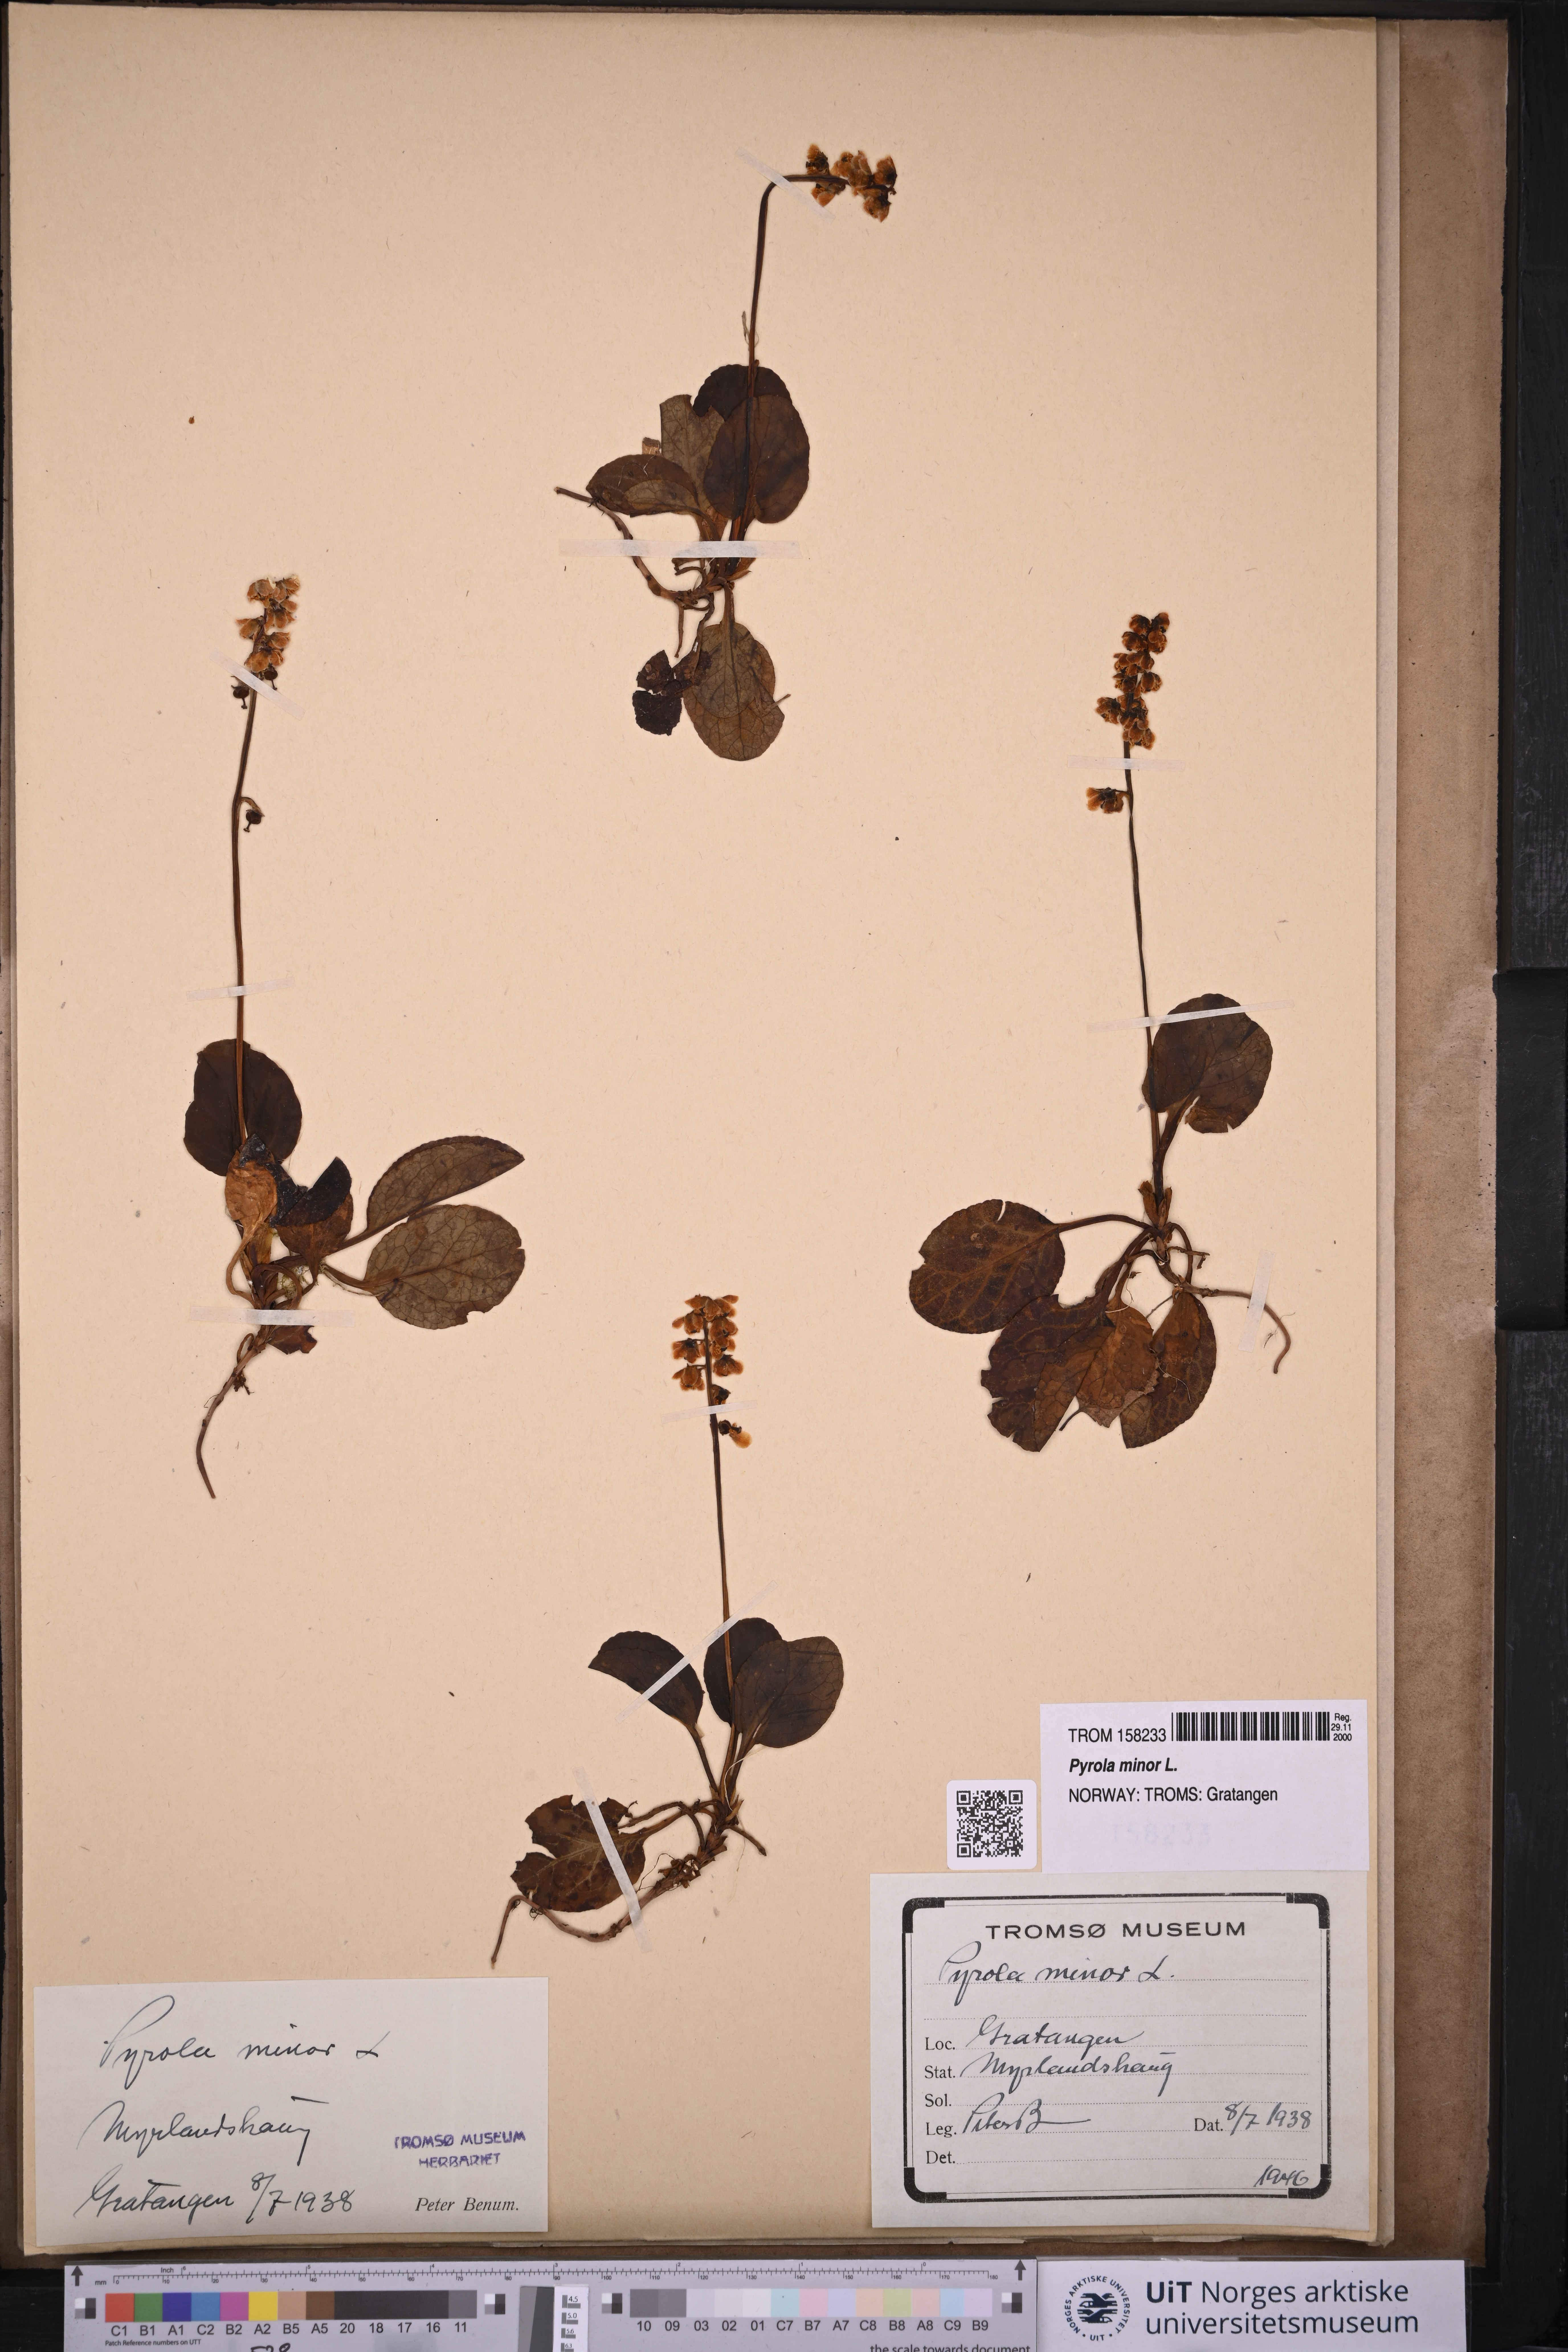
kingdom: Plantae
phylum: Tracheophyta
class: Magnoliopsida
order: Ericales
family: Ericaceae
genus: Pyrola
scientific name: Pyrola minor
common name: Common wintergreen
